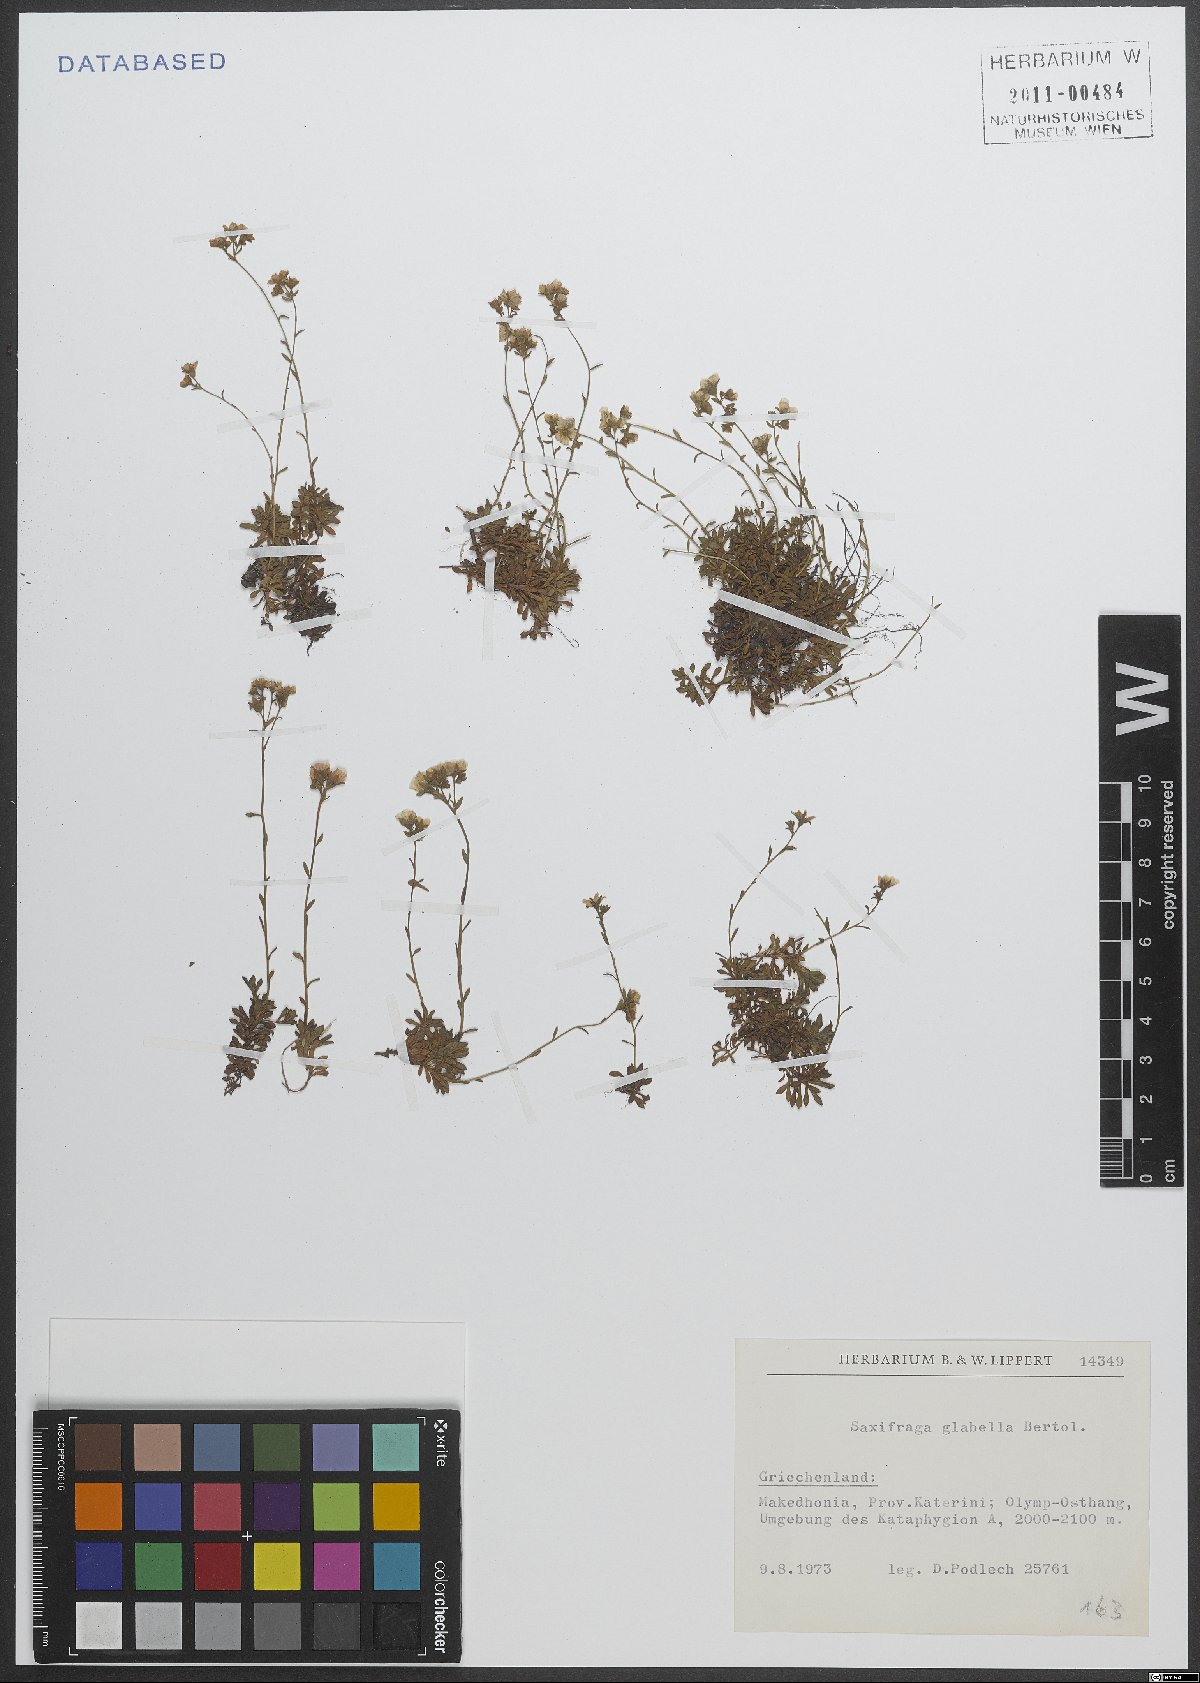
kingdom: Plantae
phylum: Tracheophyta
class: Magnoliopsida
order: Saxifragales
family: Saxifragaceae
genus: Saxifraga
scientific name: Saxifraga glabella
